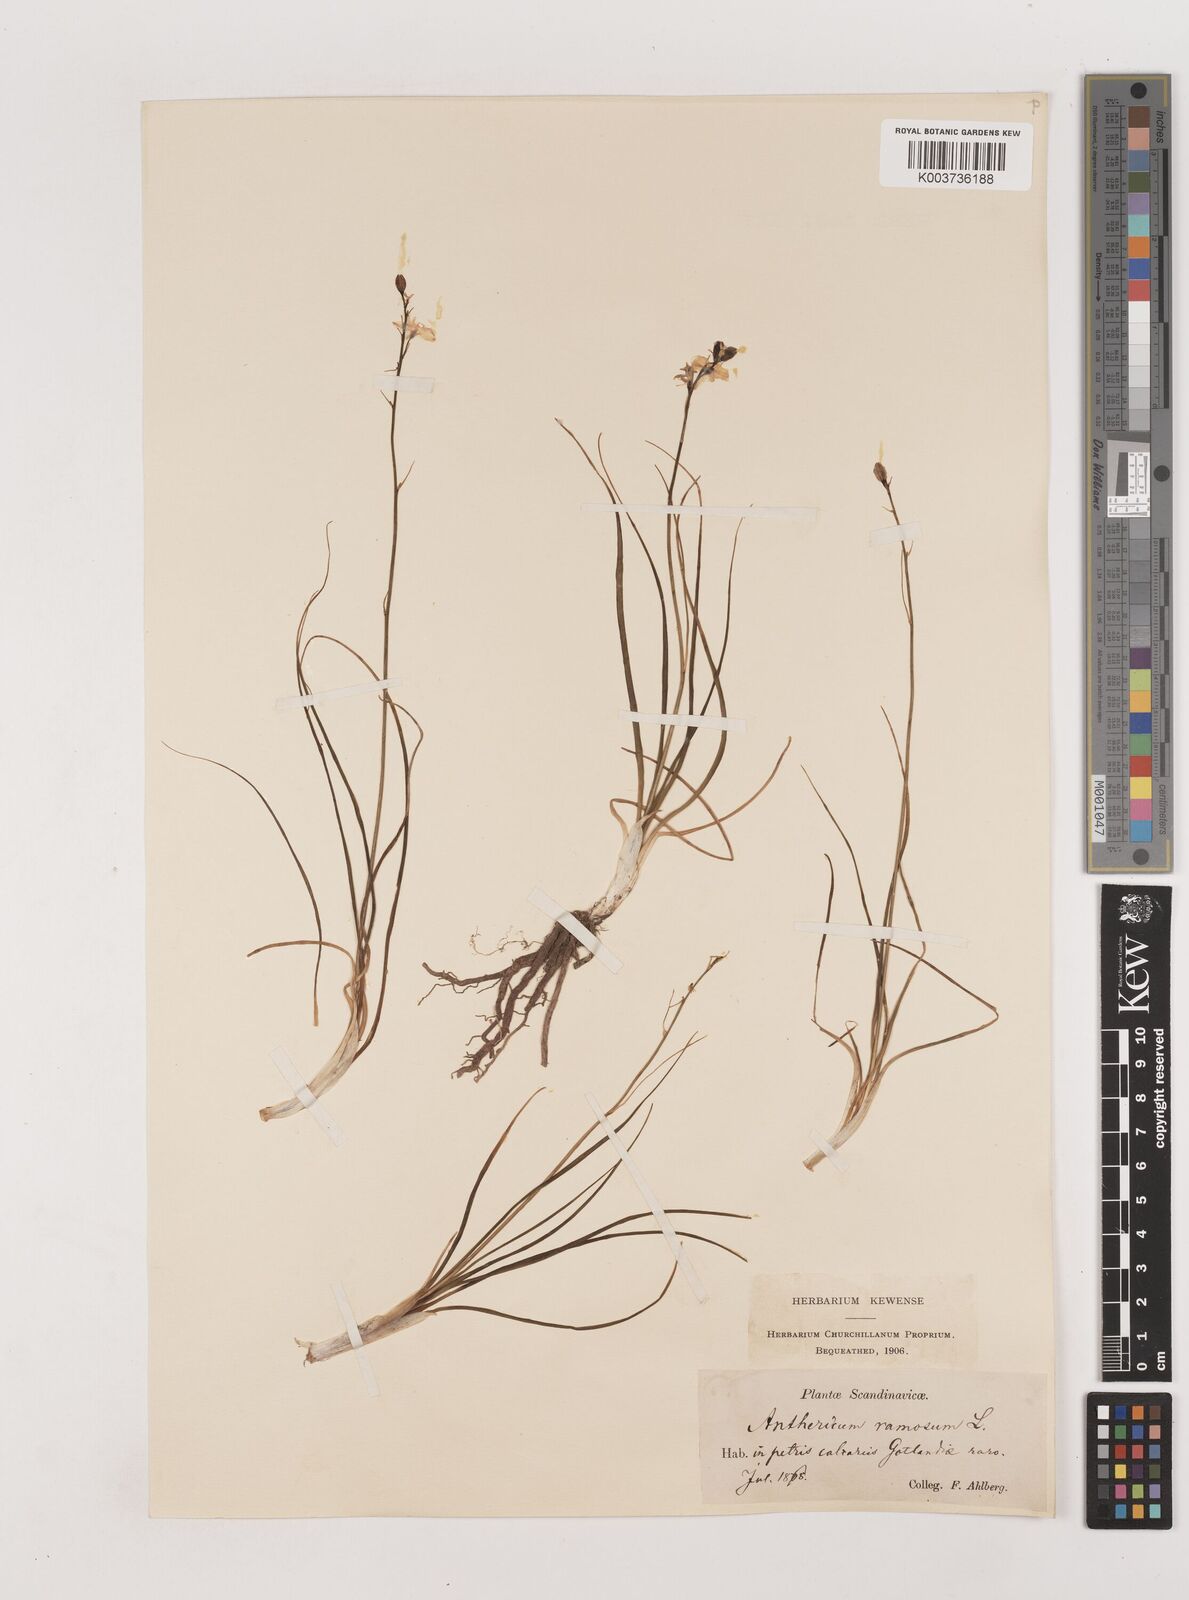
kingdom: Plantae
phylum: Tracheophyta
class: Liliopsida
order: Asparagales
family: Asparagaceae
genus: Anthericum
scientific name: Anthericum ramosum
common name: Branched st. bernard's-lily
